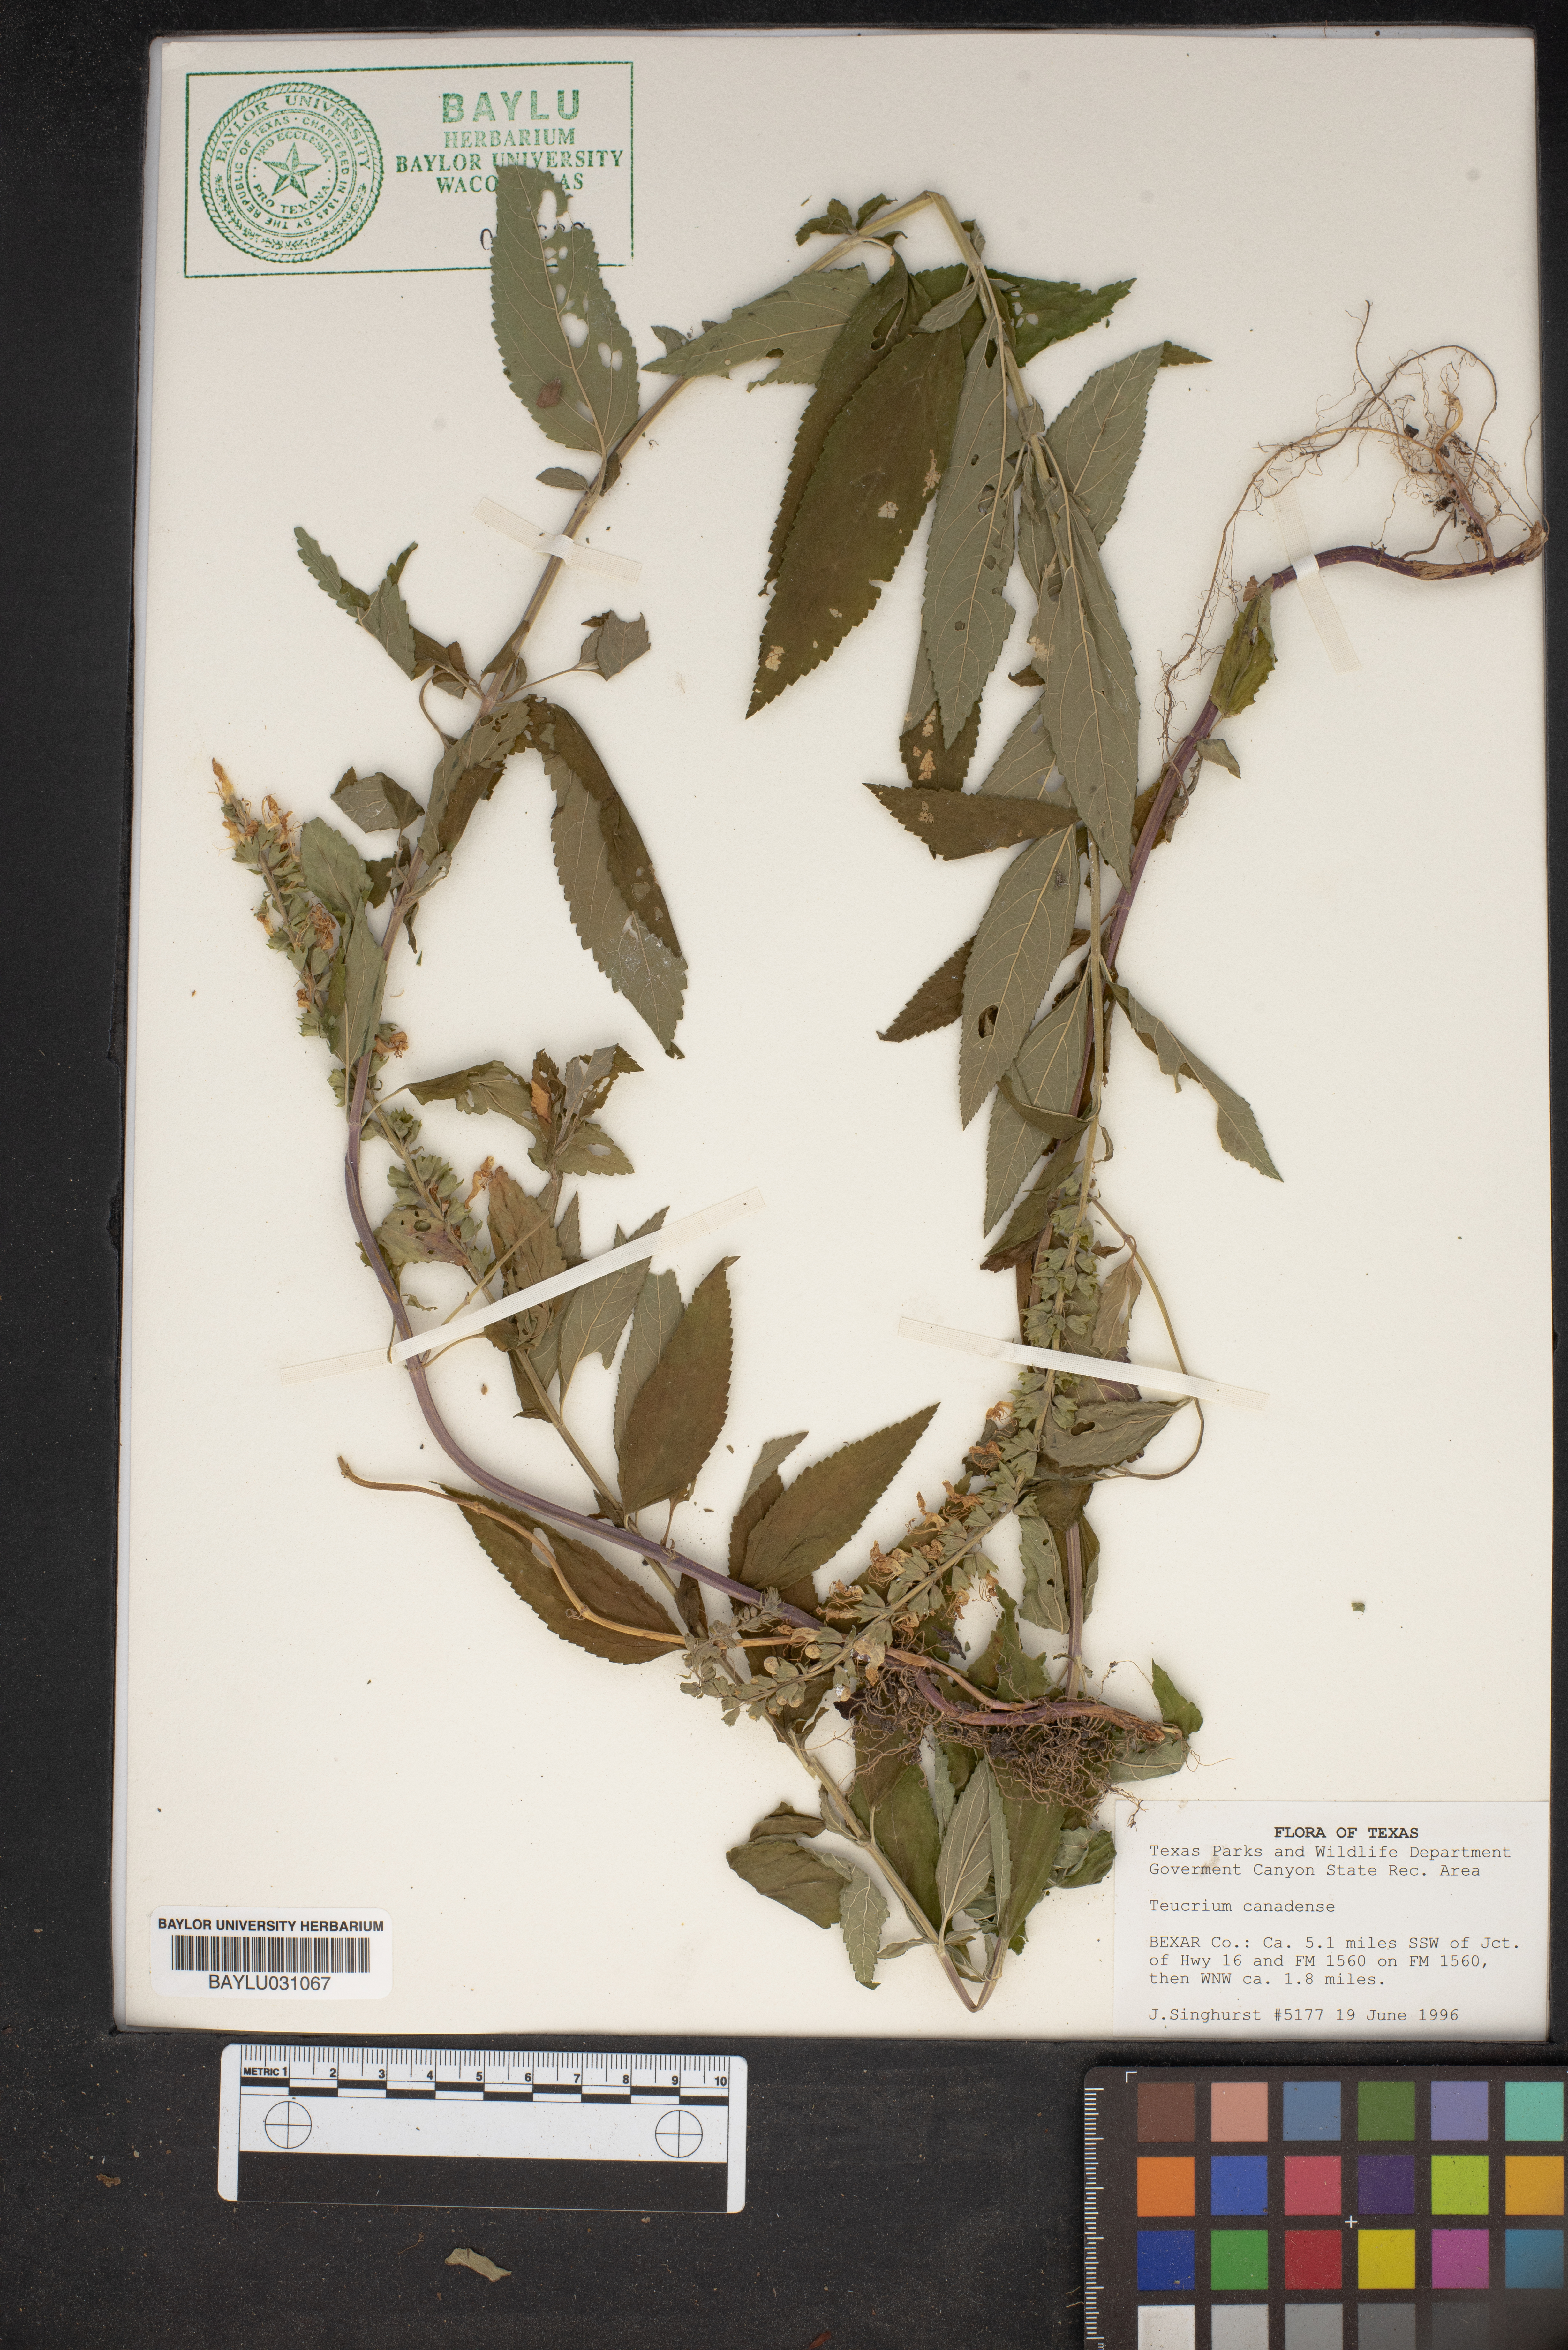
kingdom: Plantae
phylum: Tracheophyta
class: Magnoliopsida
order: Lamiales
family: Lamiaceae
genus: Teucrium
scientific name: Teucrium canadense
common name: American germander
